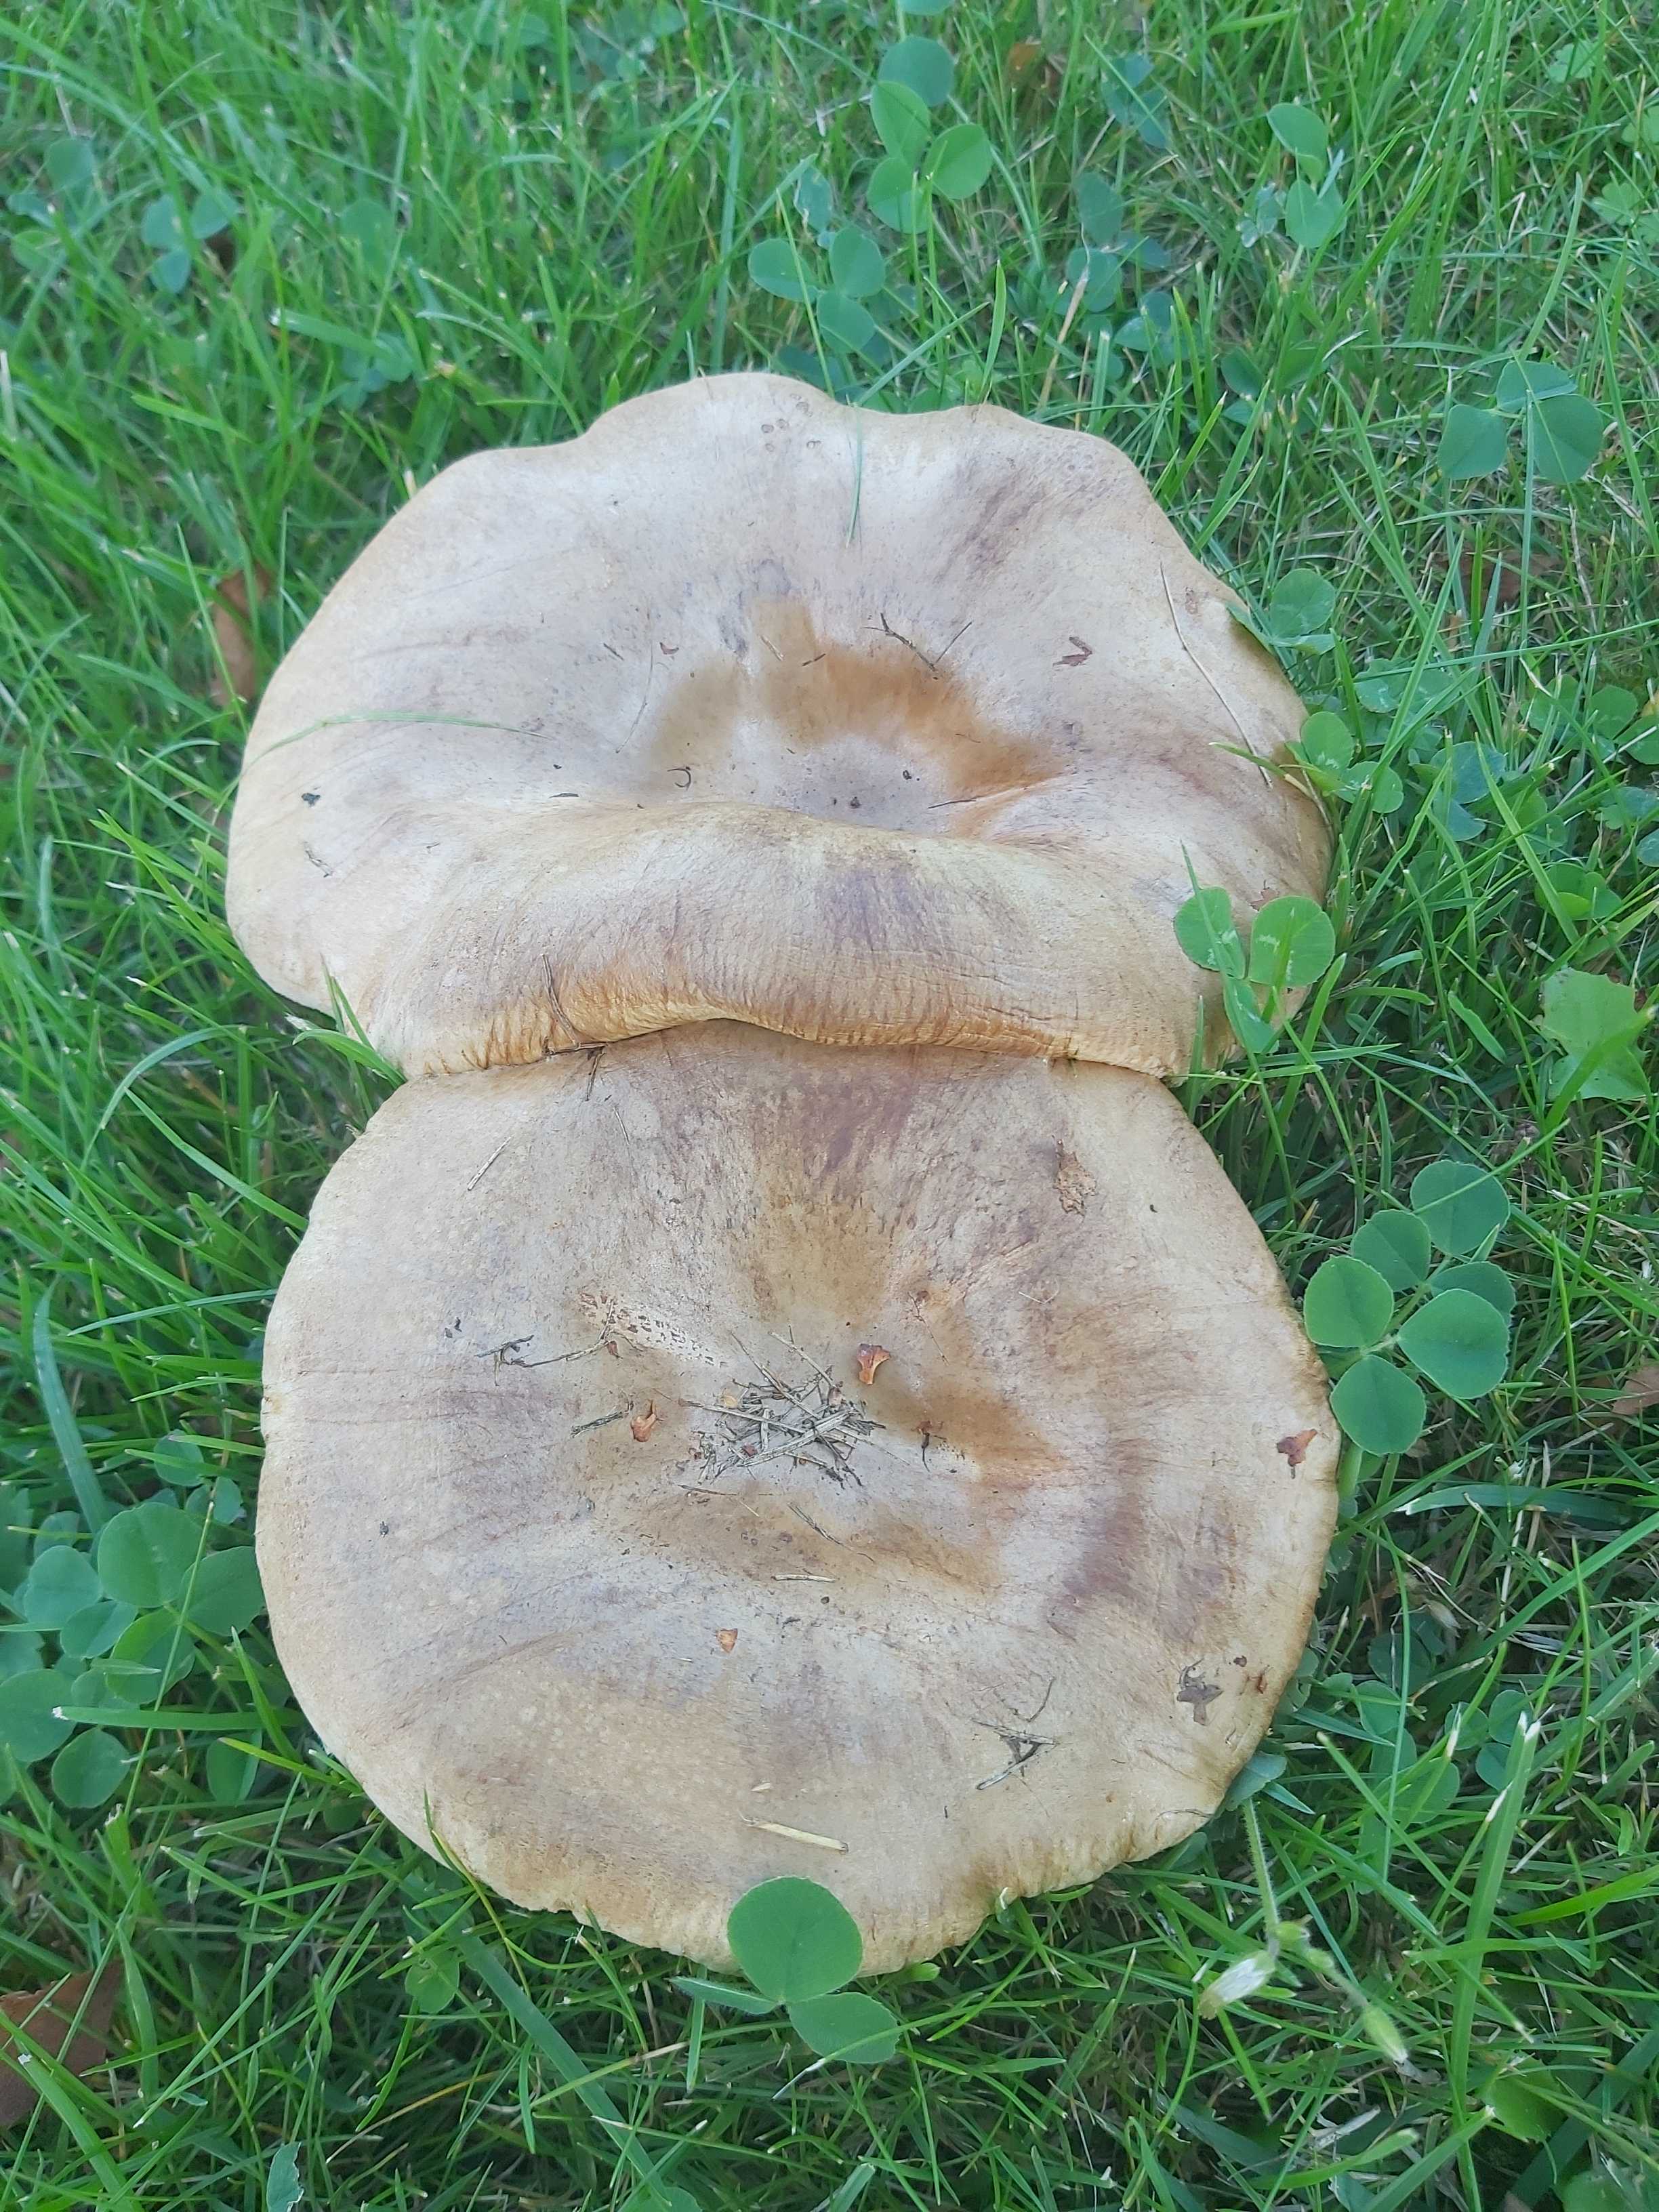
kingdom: Fungi
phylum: Basidiomycota
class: Agaricomycetes
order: Boletales
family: Paxillaceae
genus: Paxillus
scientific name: Paxillus
